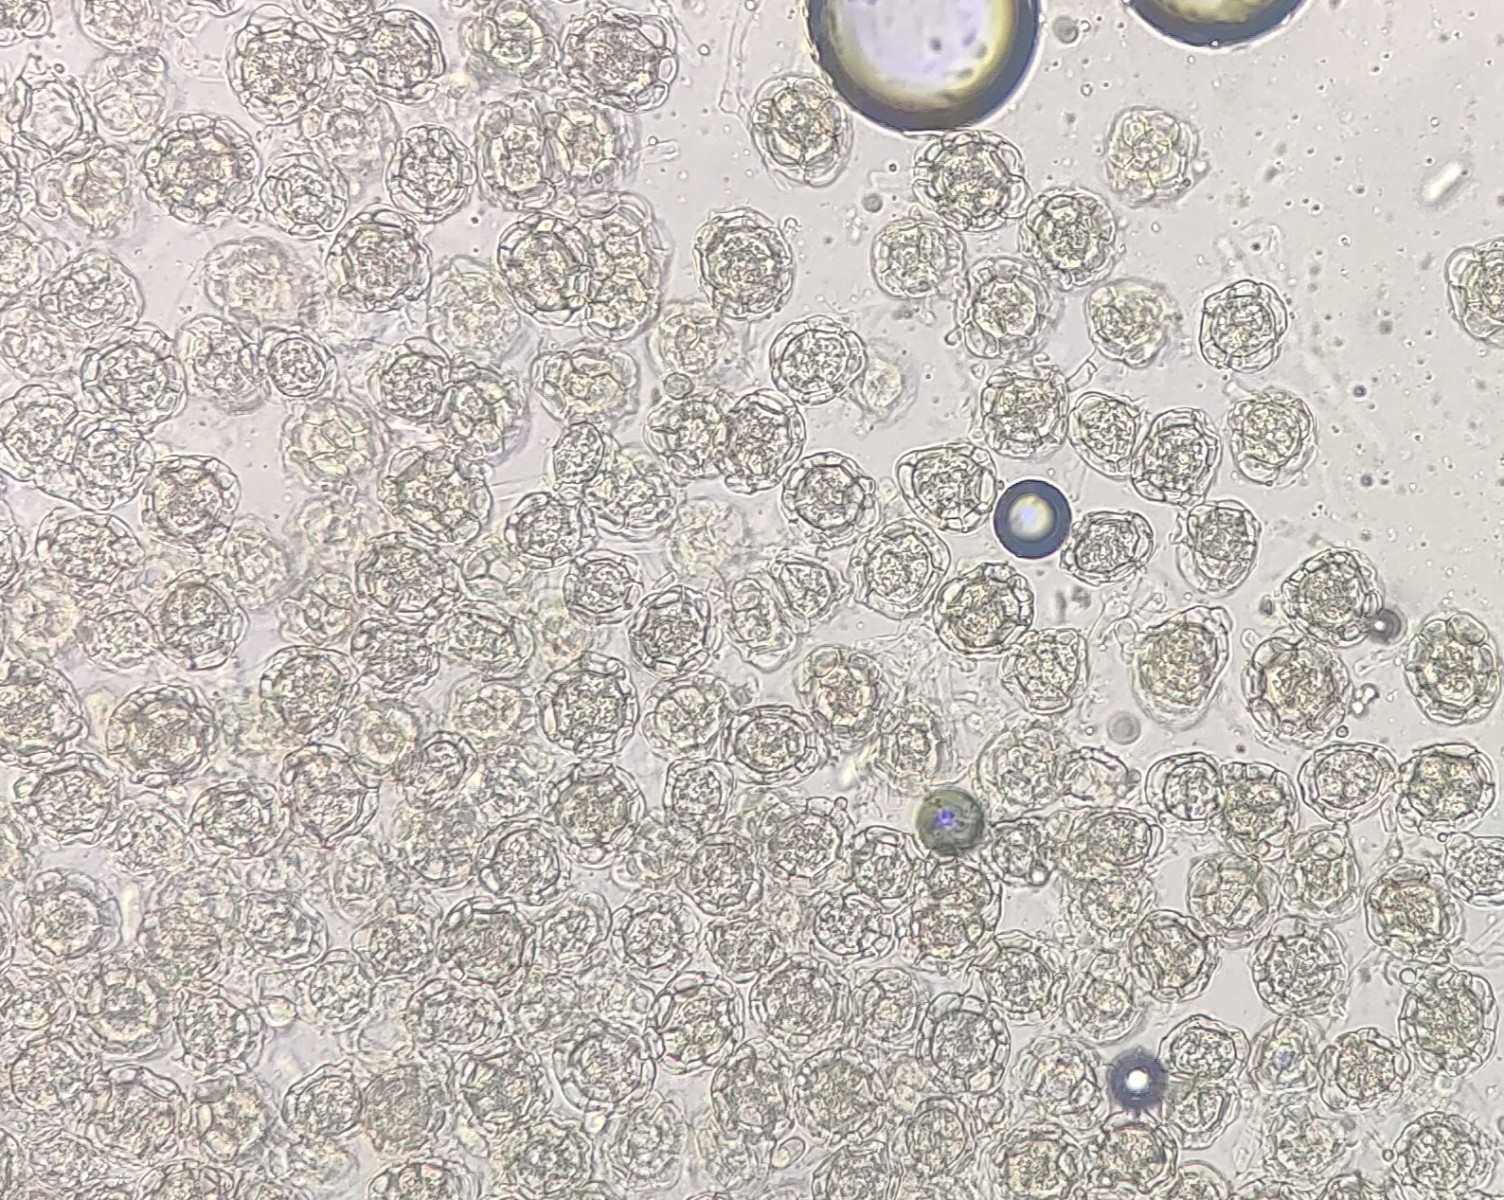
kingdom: Fungi
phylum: Ascomycota
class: Sordariomycetes
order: Hypocreales
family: Hypocreaceae
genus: Hypomyces
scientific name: Hypomyces papulasporae
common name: jordtunge-snylteskorpe
